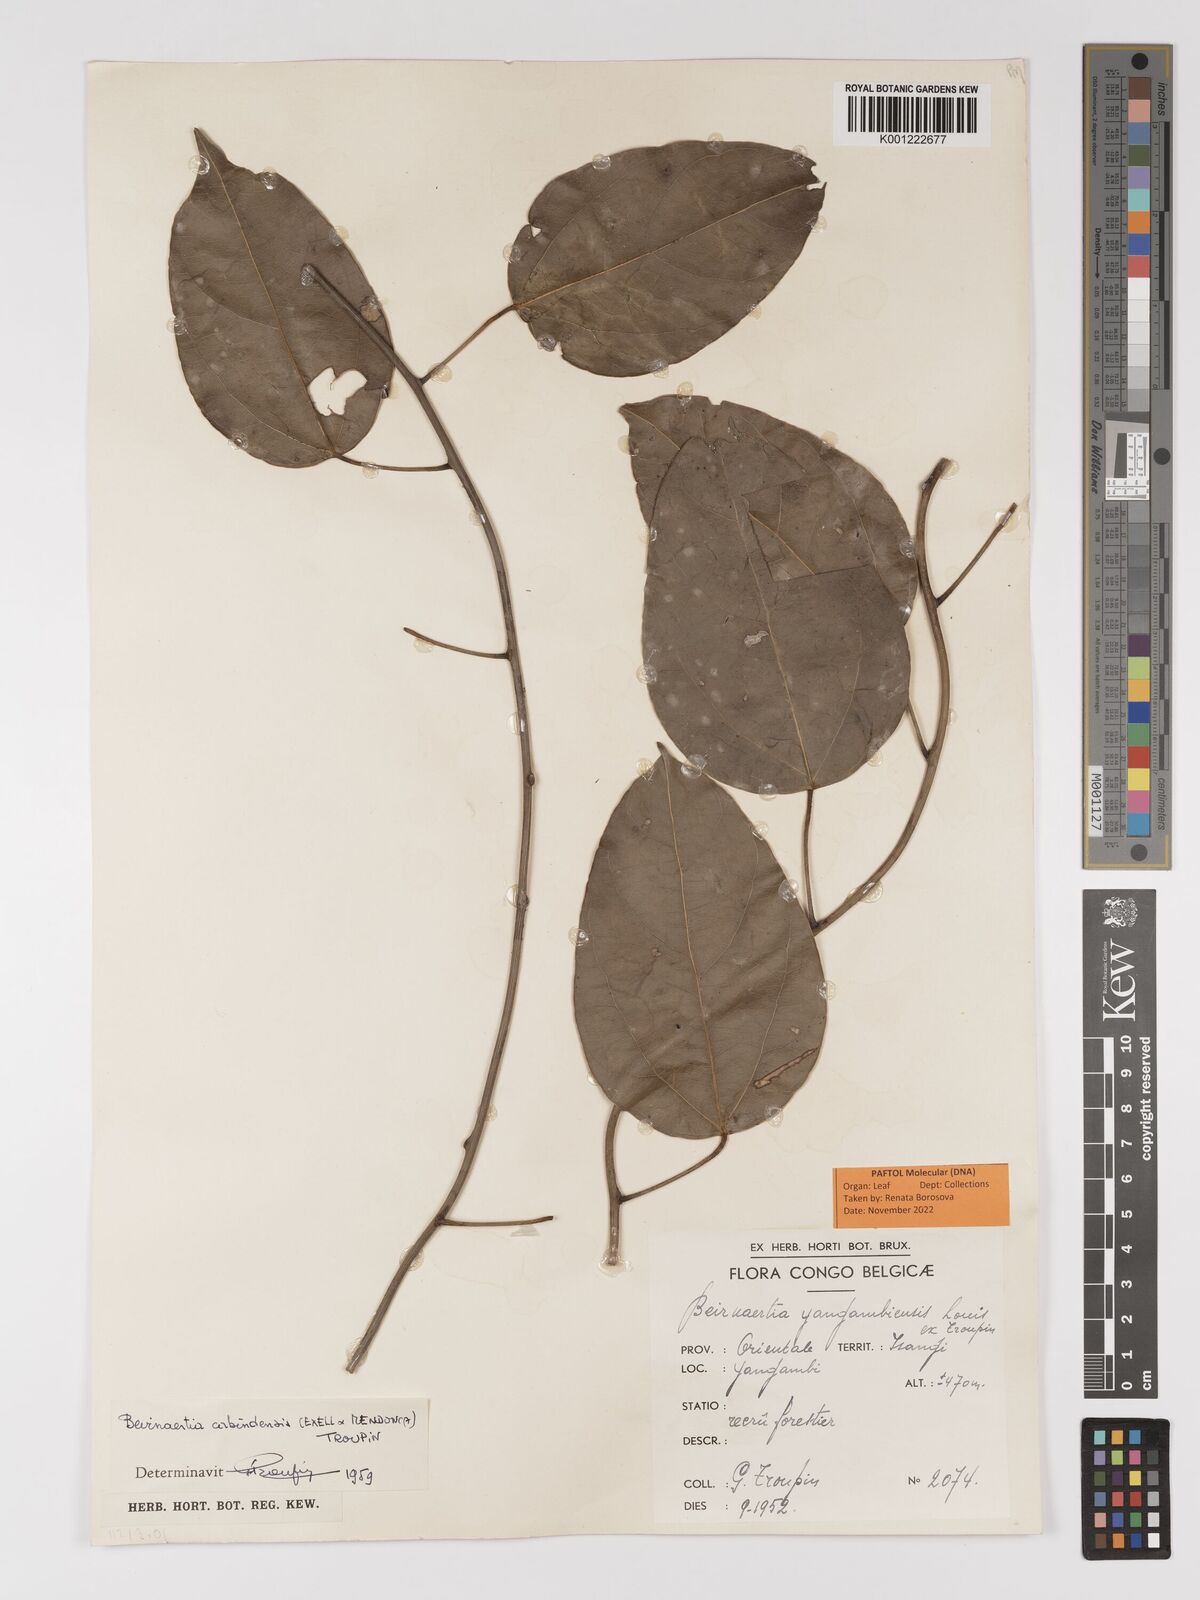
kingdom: Plantae
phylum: Tracheophyta
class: Magnoliopsida
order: Ranunculales
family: Menispermaceae
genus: Beirnaertia
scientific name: Beirnaertia cabindensis
